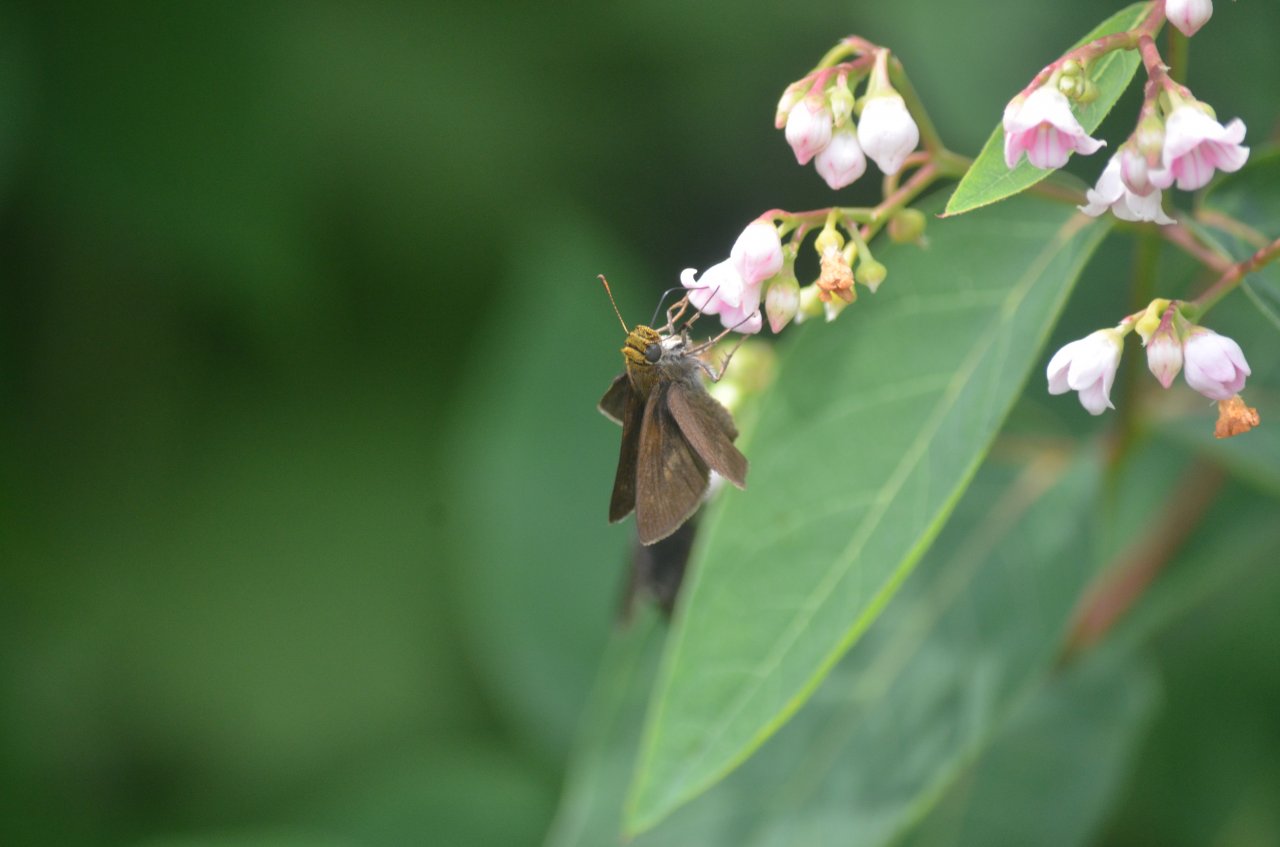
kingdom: Animalia
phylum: Arthropoda
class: Insecta
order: Lepidoptera
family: Hesperiidae
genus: Euphyes
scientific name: Euphyes vestris
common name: Dun Skipper
